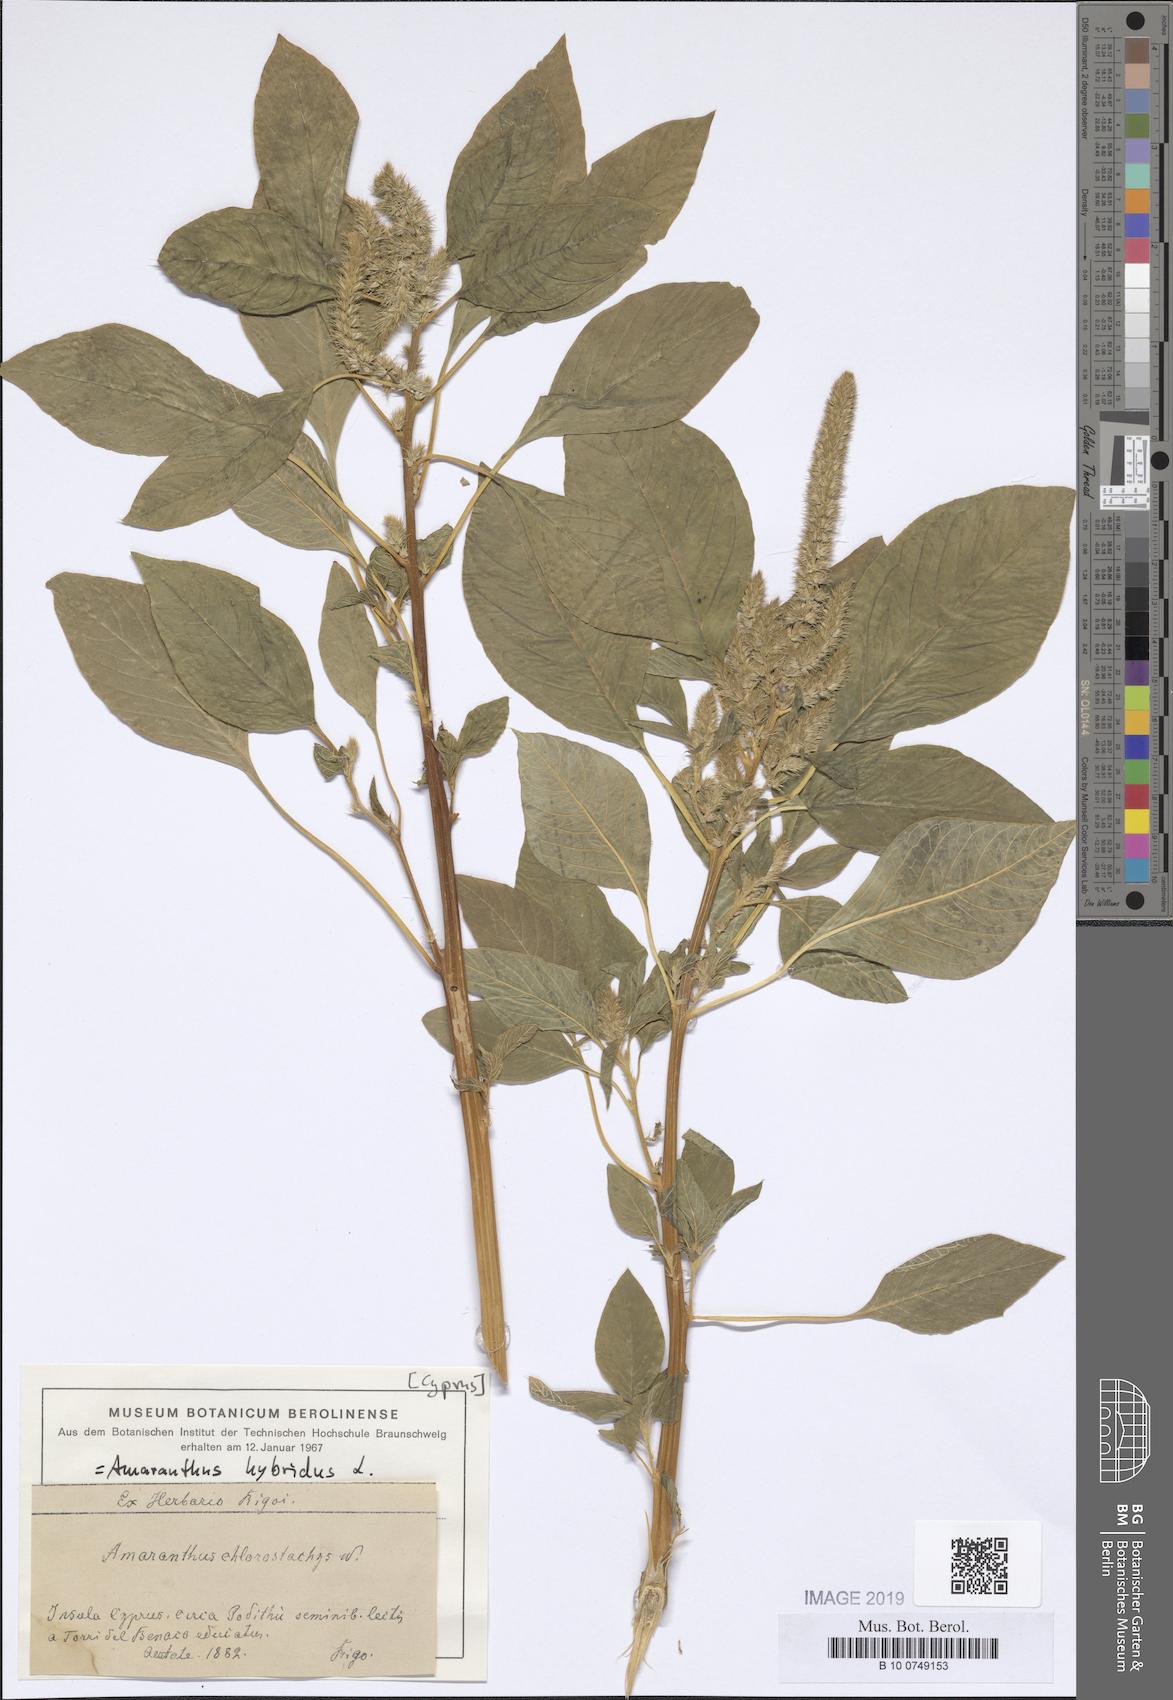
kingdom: Plantae
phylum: Tracheophyta
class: Magnoliopsida
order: Caryophyllales
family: Amaranthaceae
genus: Amaranthus
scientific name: Amaranthus hybridus
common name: Green amaranth
